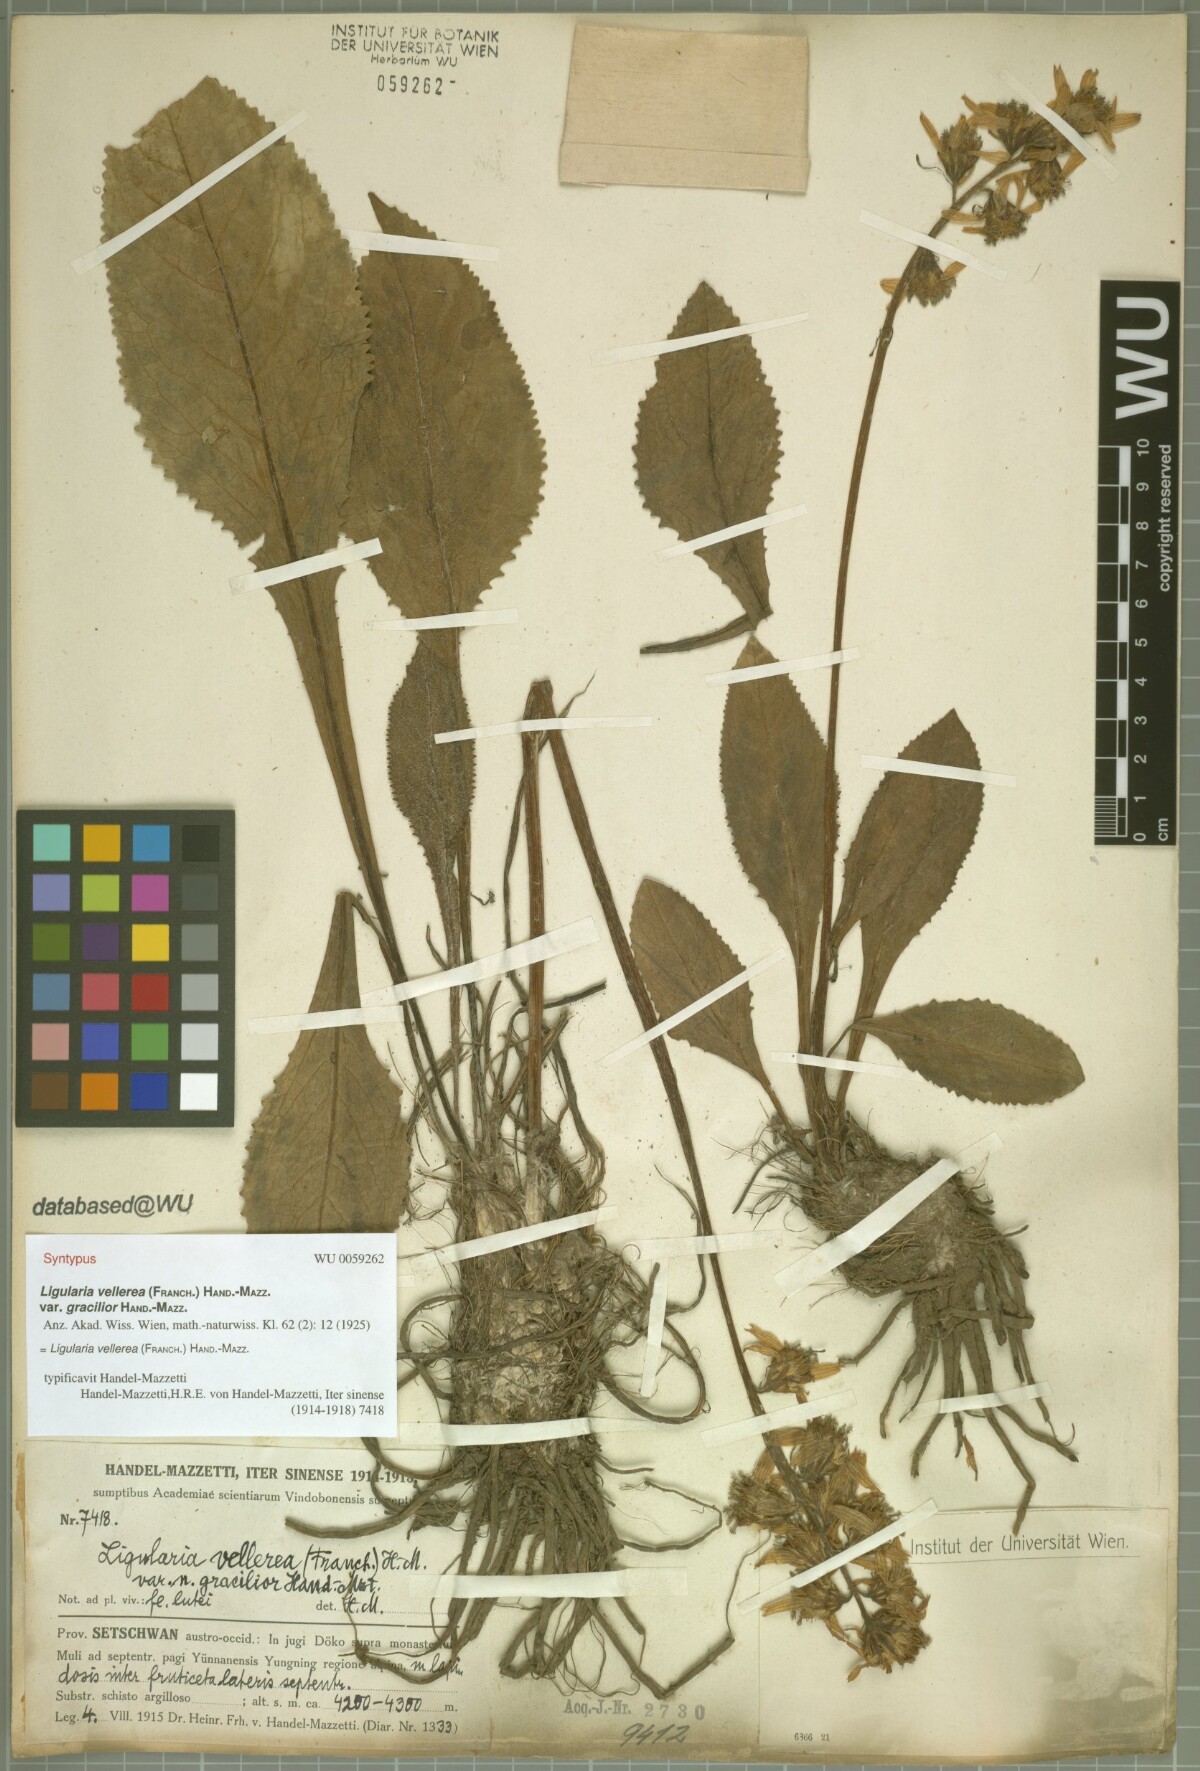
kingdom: Plantae
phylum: Tracheophyta
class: Magnoliopsida
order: Asterales
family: Asteraceae
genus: Ligularia
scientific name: Ligularia vellerea
